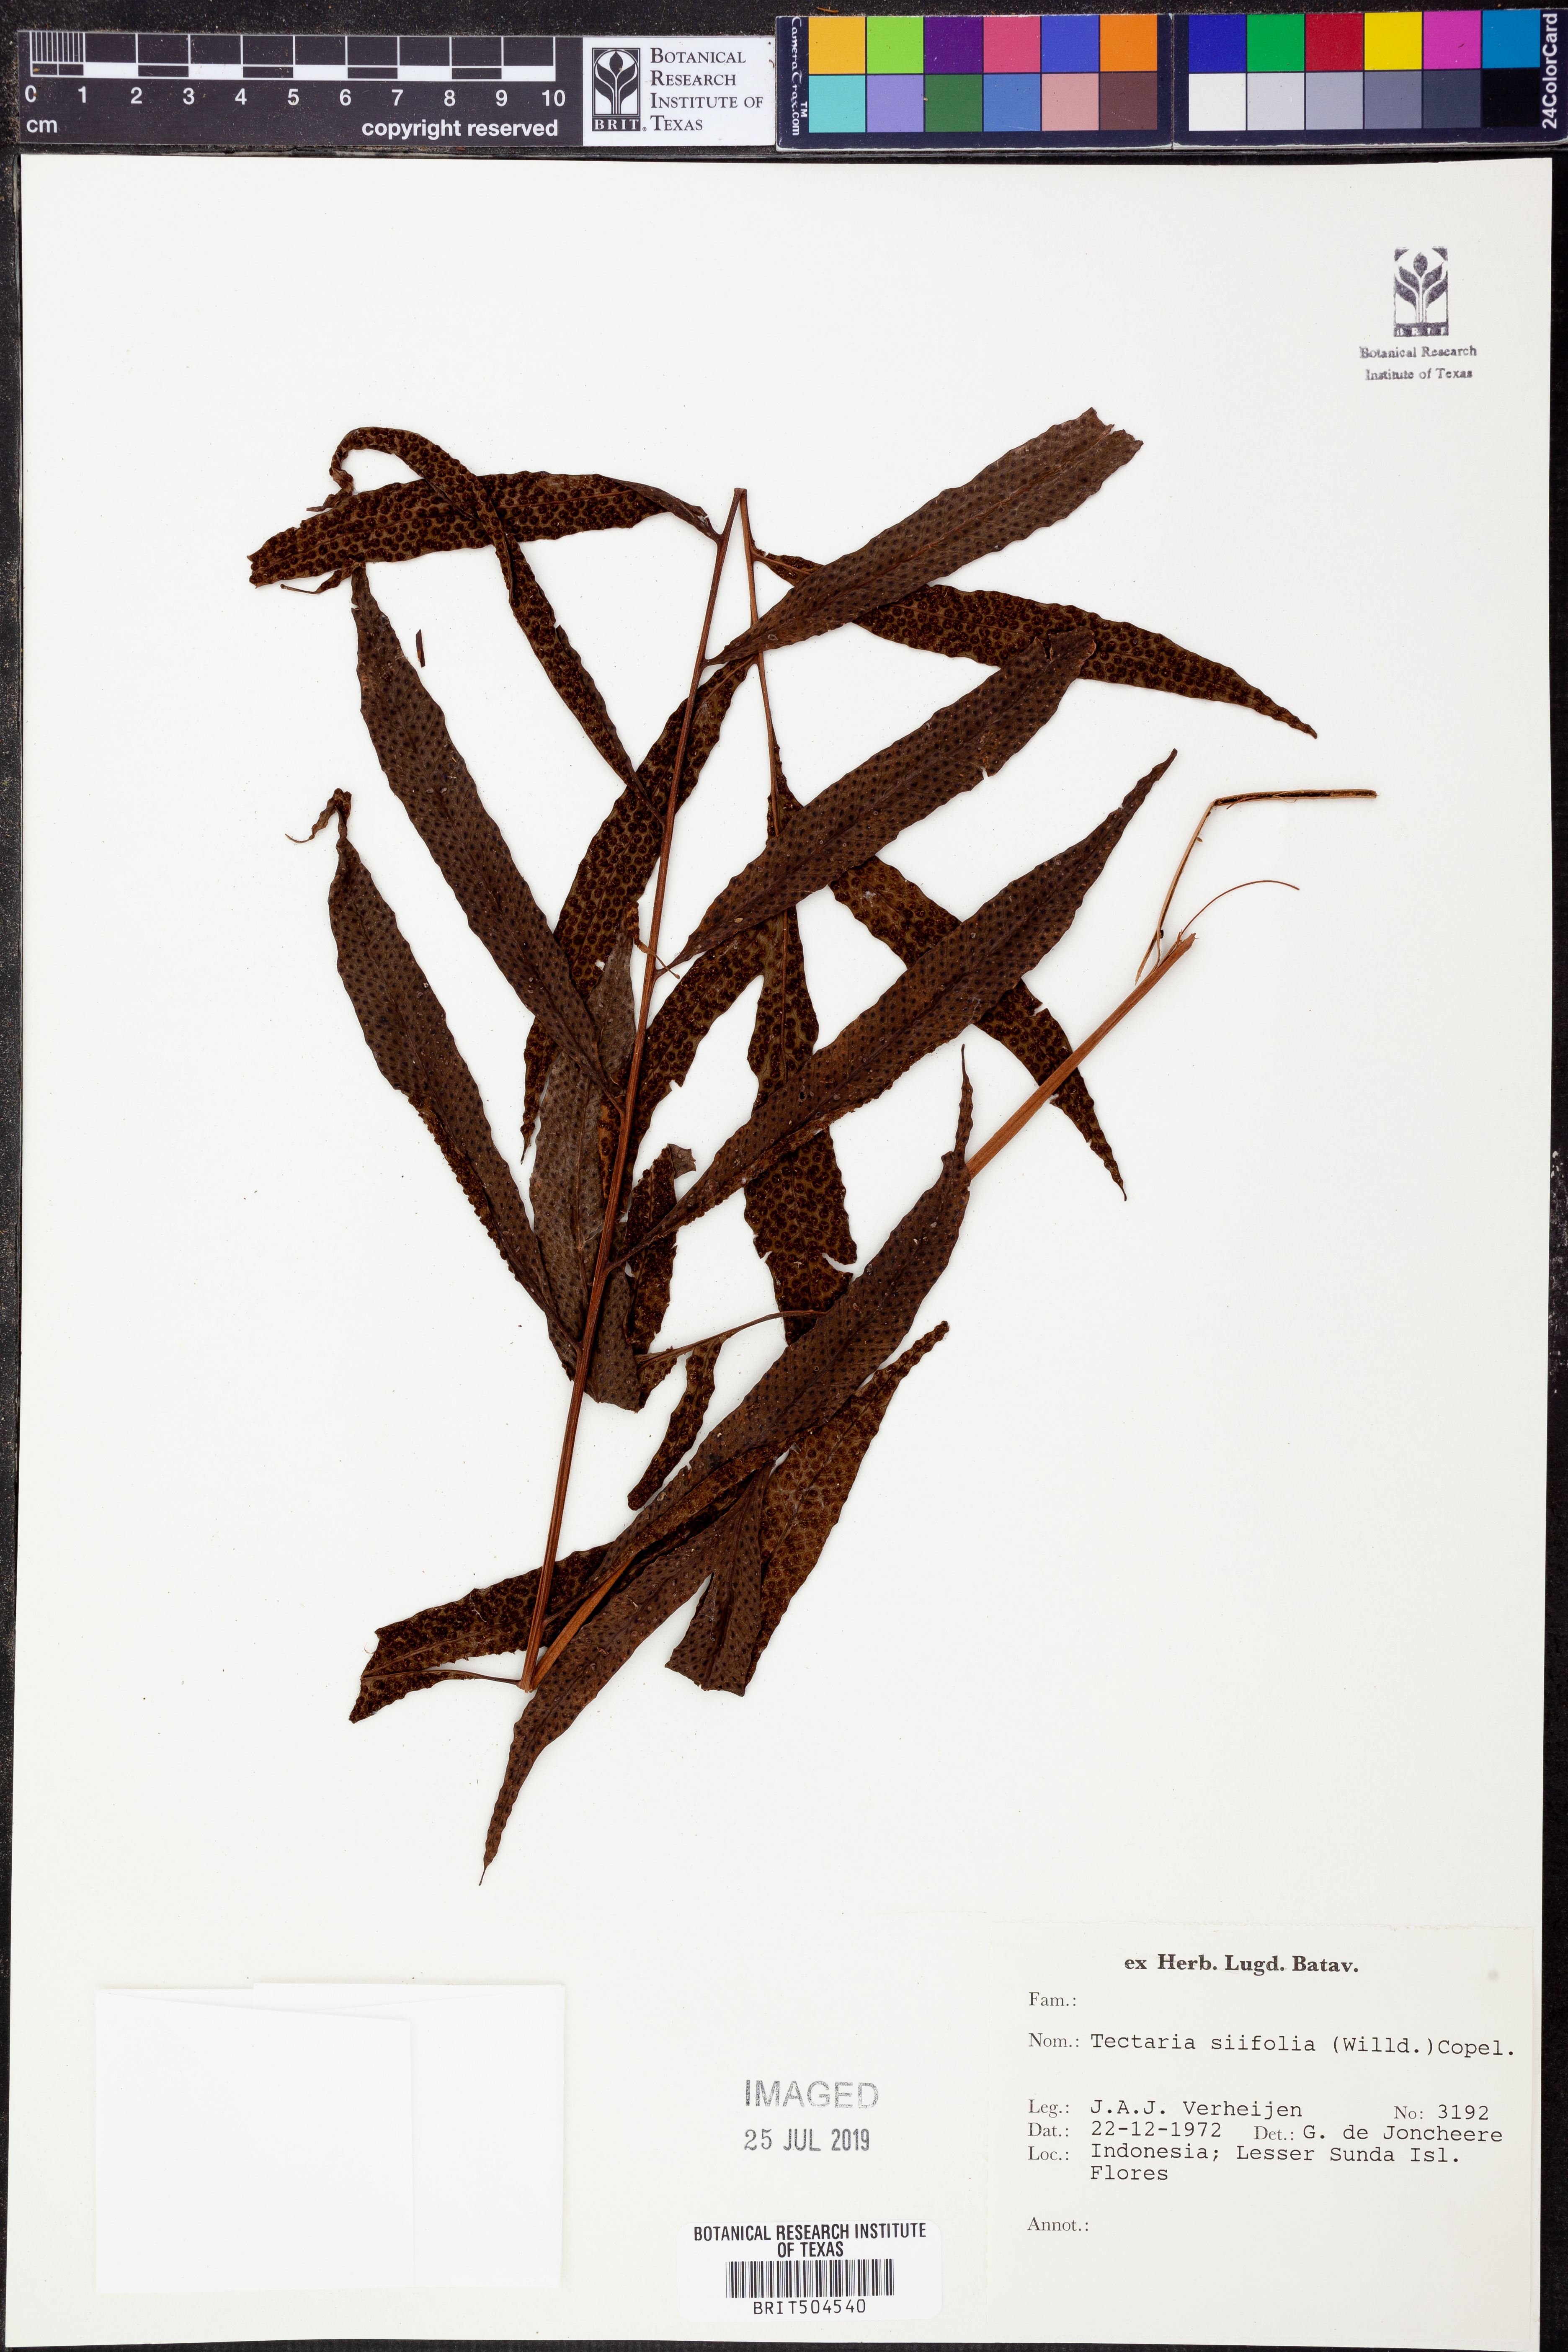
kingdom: Plantae
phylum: Tracheophyta
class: Polypodiopsida
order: Polypodiales
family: Tectariaceae
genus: Tectaria
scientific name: Tectaria siifolia
